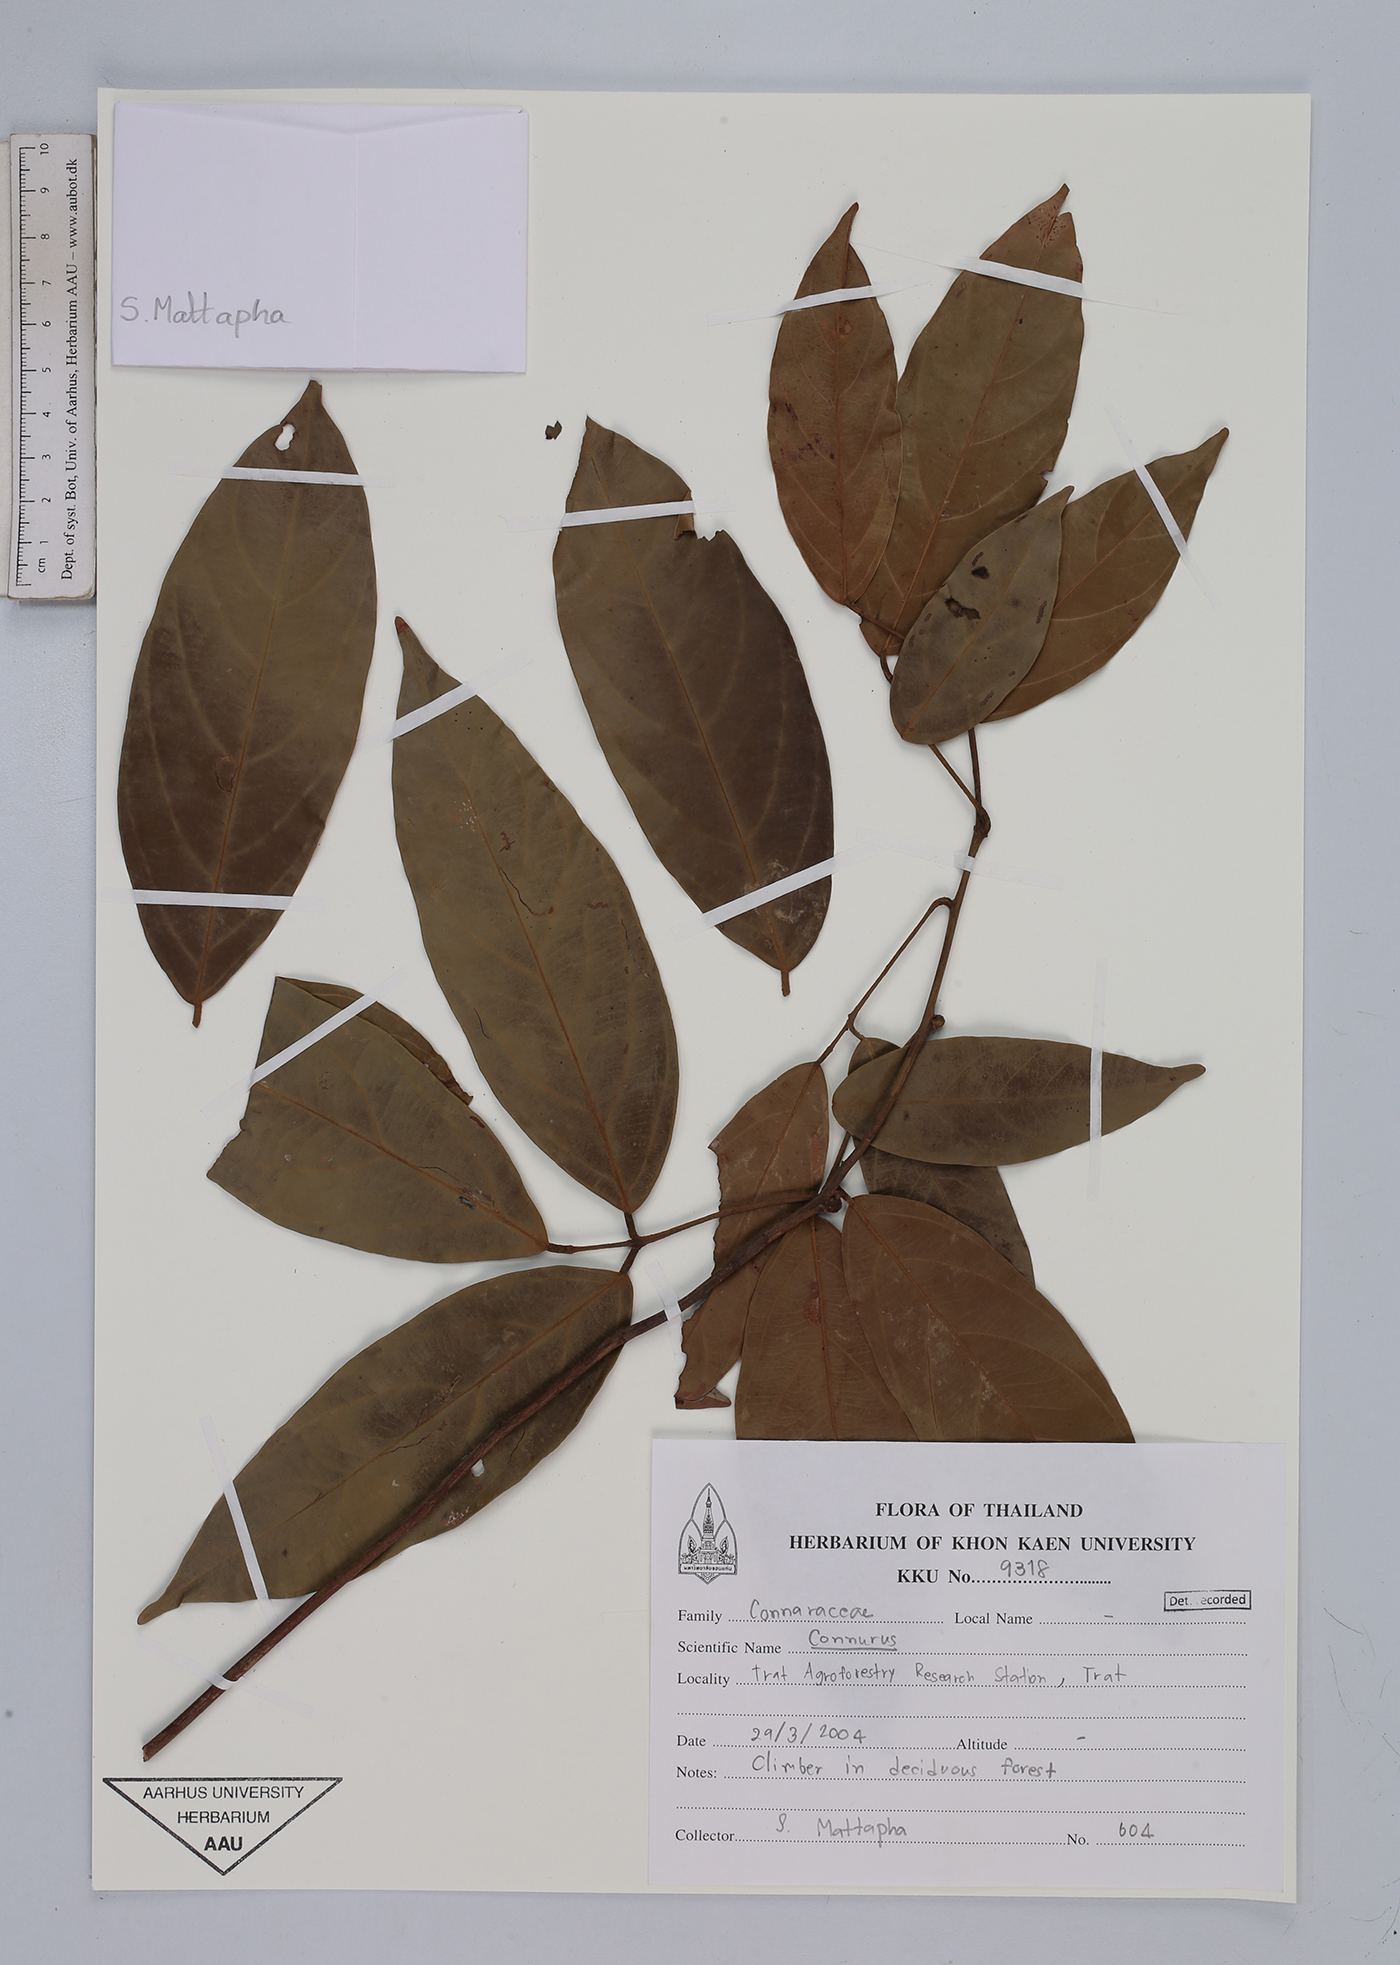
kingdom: Plantae
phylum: Tracheophyta
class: Magnoliopsida
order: Oxalidales
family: Connaraceae
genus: Connarus
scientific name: Connarus
